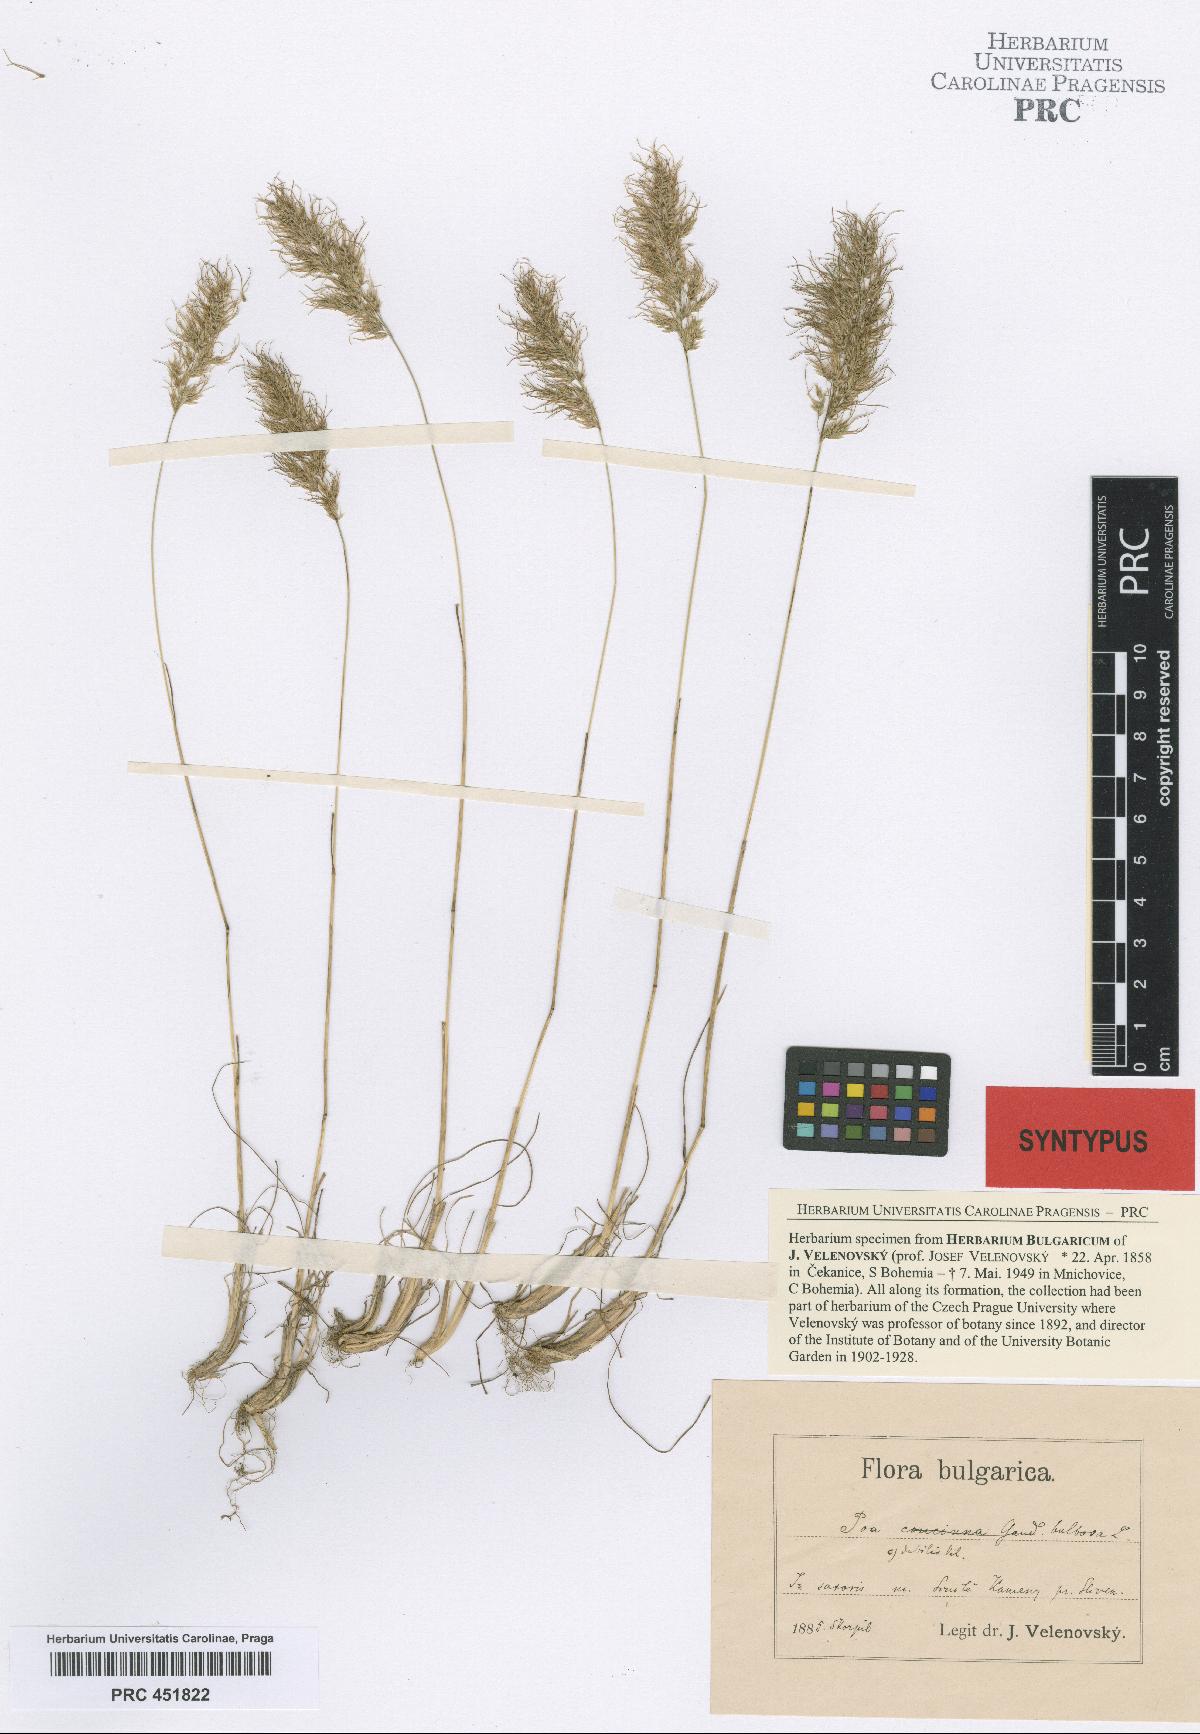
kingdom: Plantae
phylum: Tracheophyta
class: Liliopsida
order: Poales
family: Poaceae
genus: Poa
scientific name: Poa bulbosa
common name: Bulbous bluegrass
